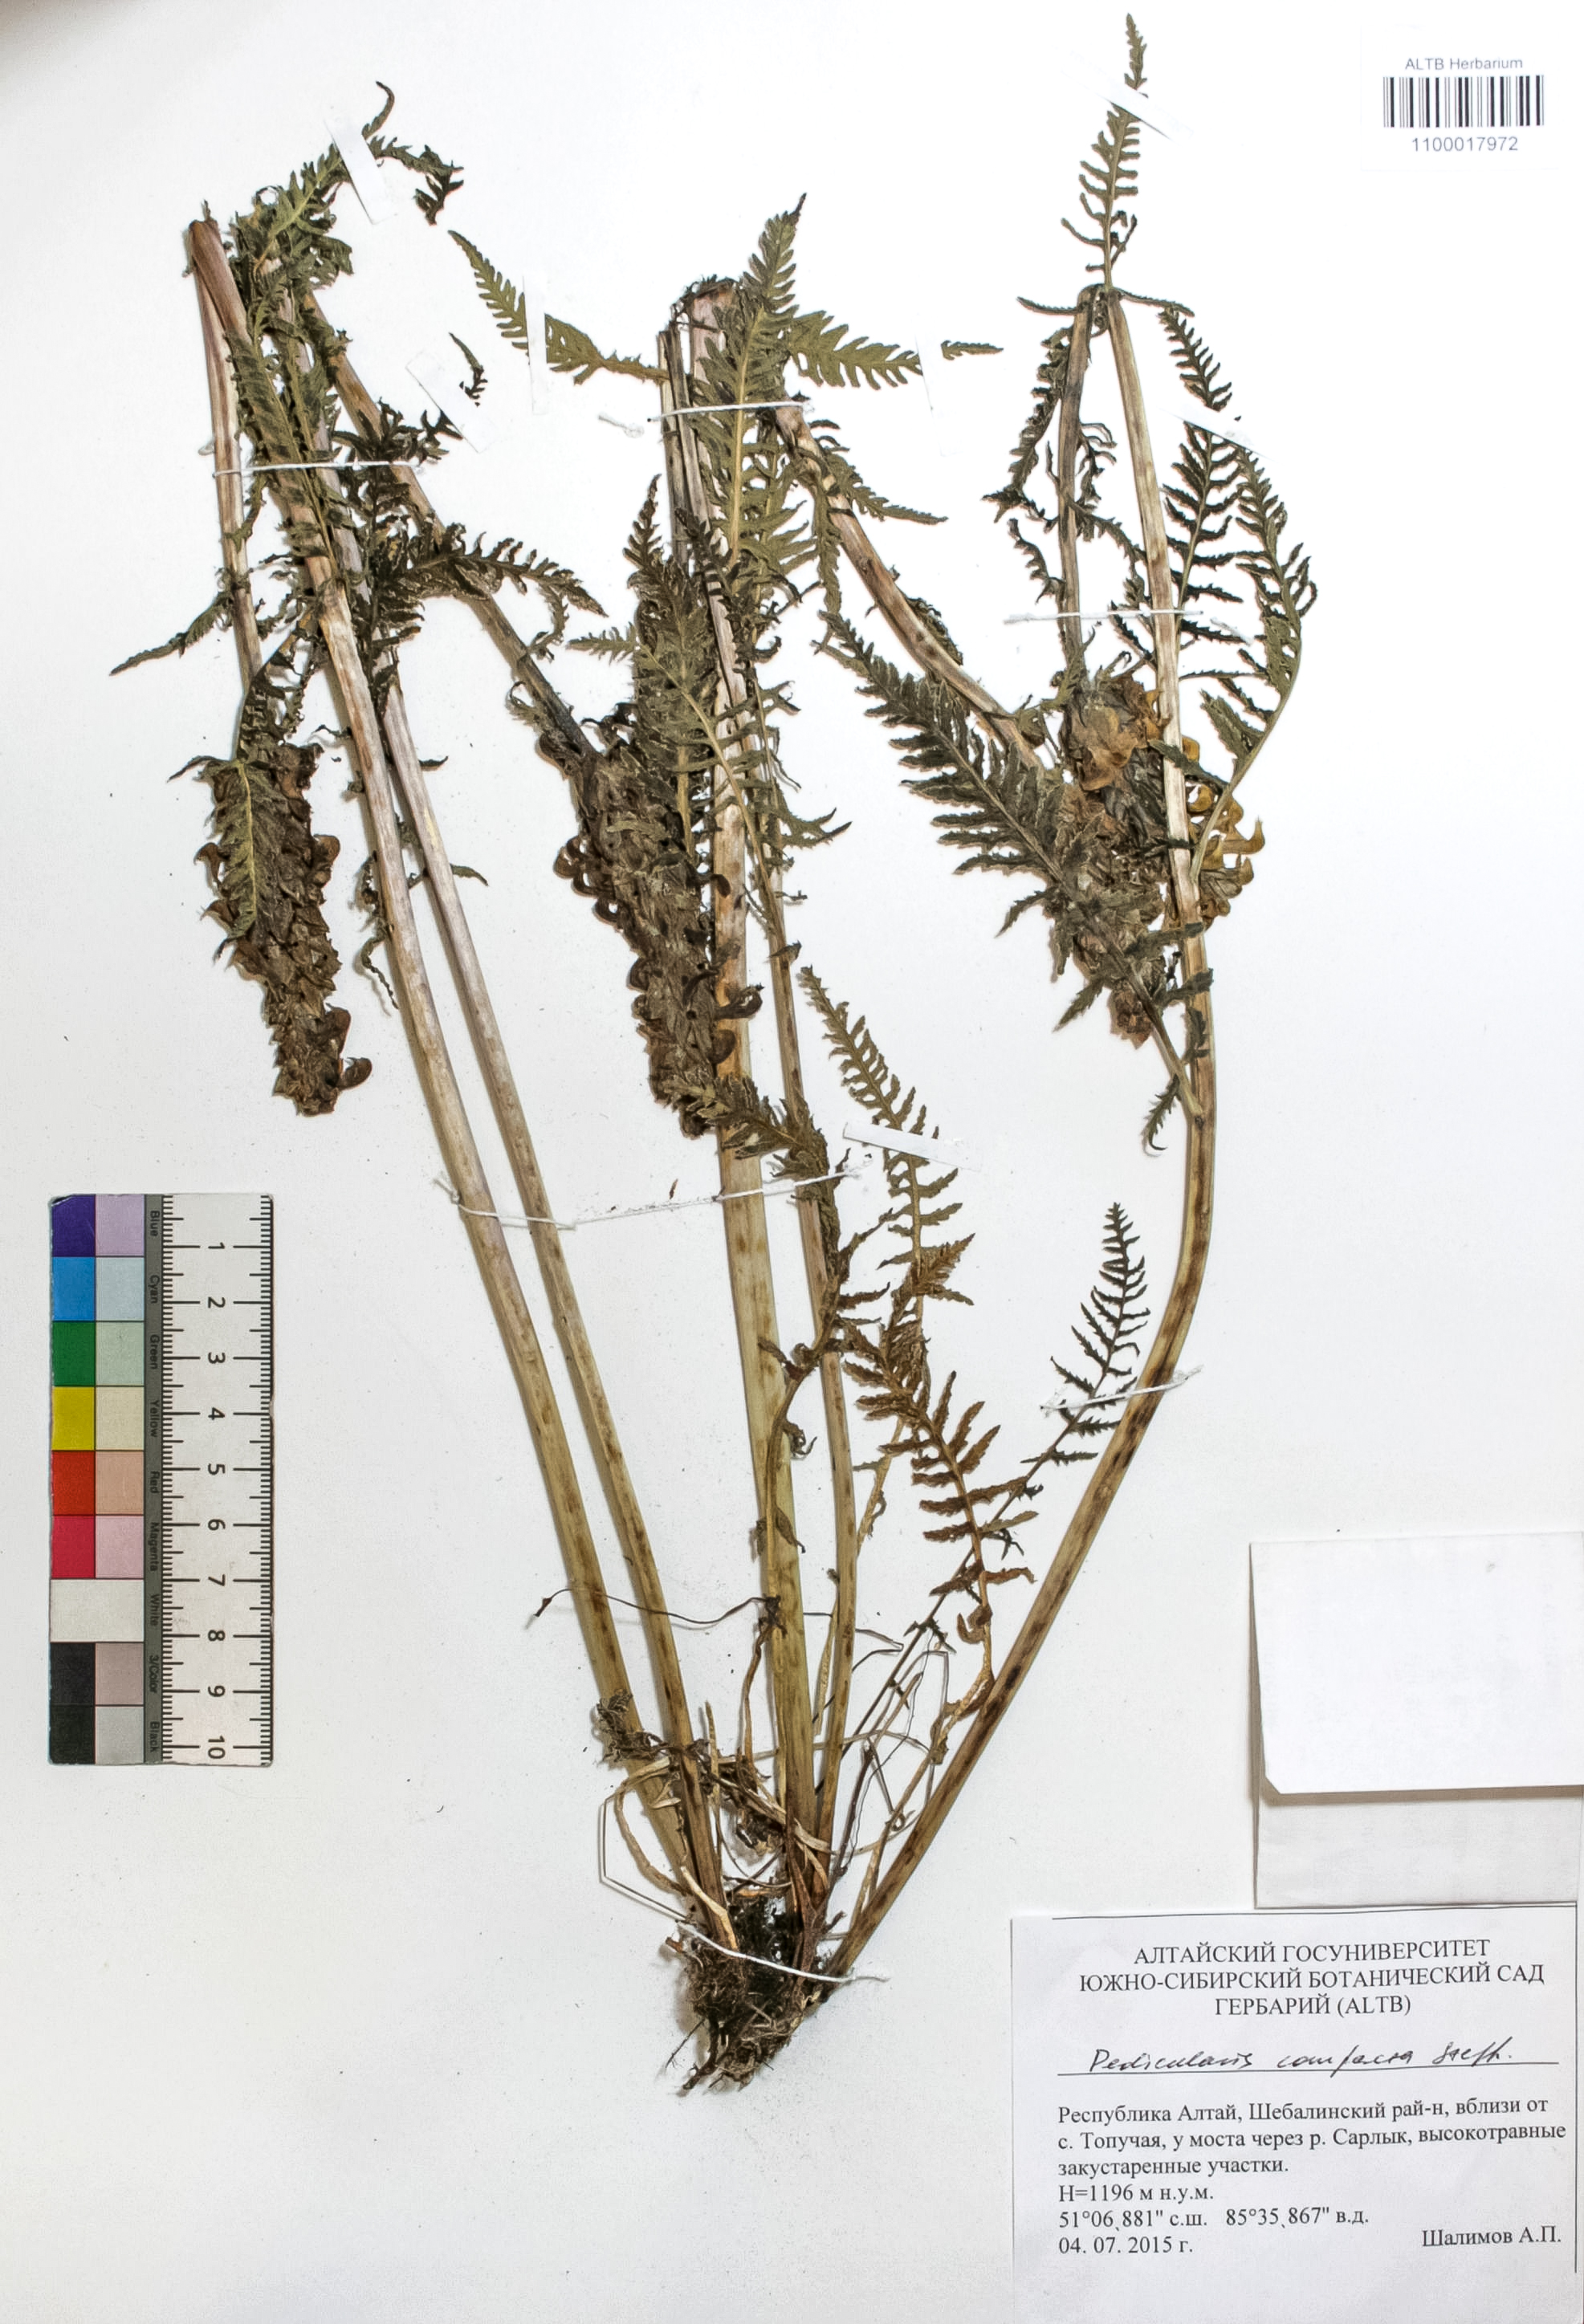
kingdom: Plantae
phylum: Tracheophyta
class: Magnoliopsida
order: Lamiales
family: Orobanchaceae
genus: Pedicularis
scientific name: Pedicularis compacta
